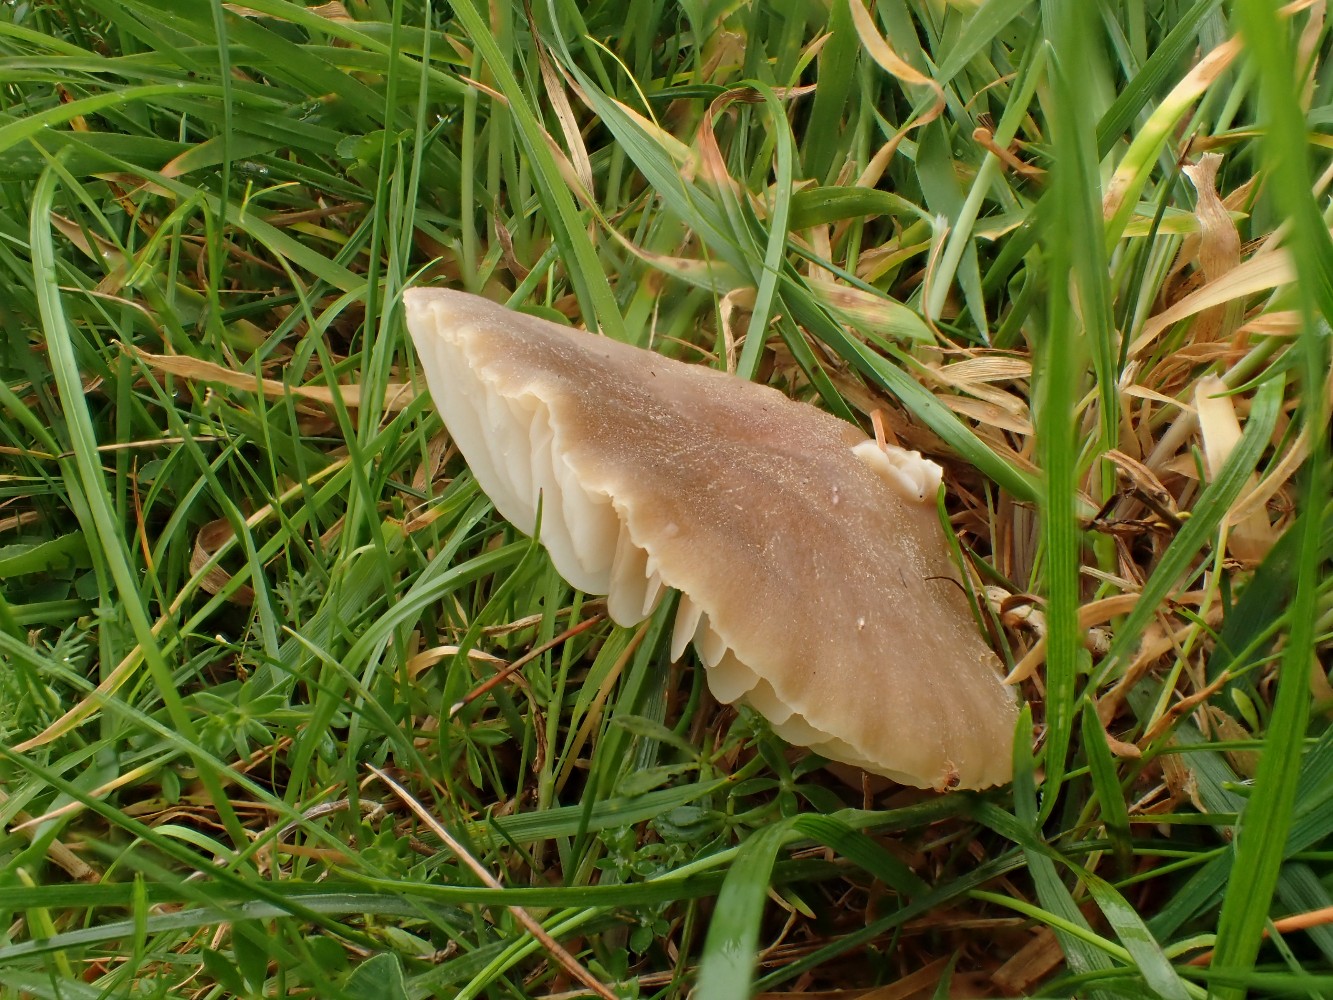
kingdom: Fungi
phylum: Basidiomycota
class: Agaricomycetes
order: Agaricales
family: Hygrophoraceae
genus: Neohygrocybe
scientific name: Neohygrocybe nitrata
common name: stinkende vokshat
